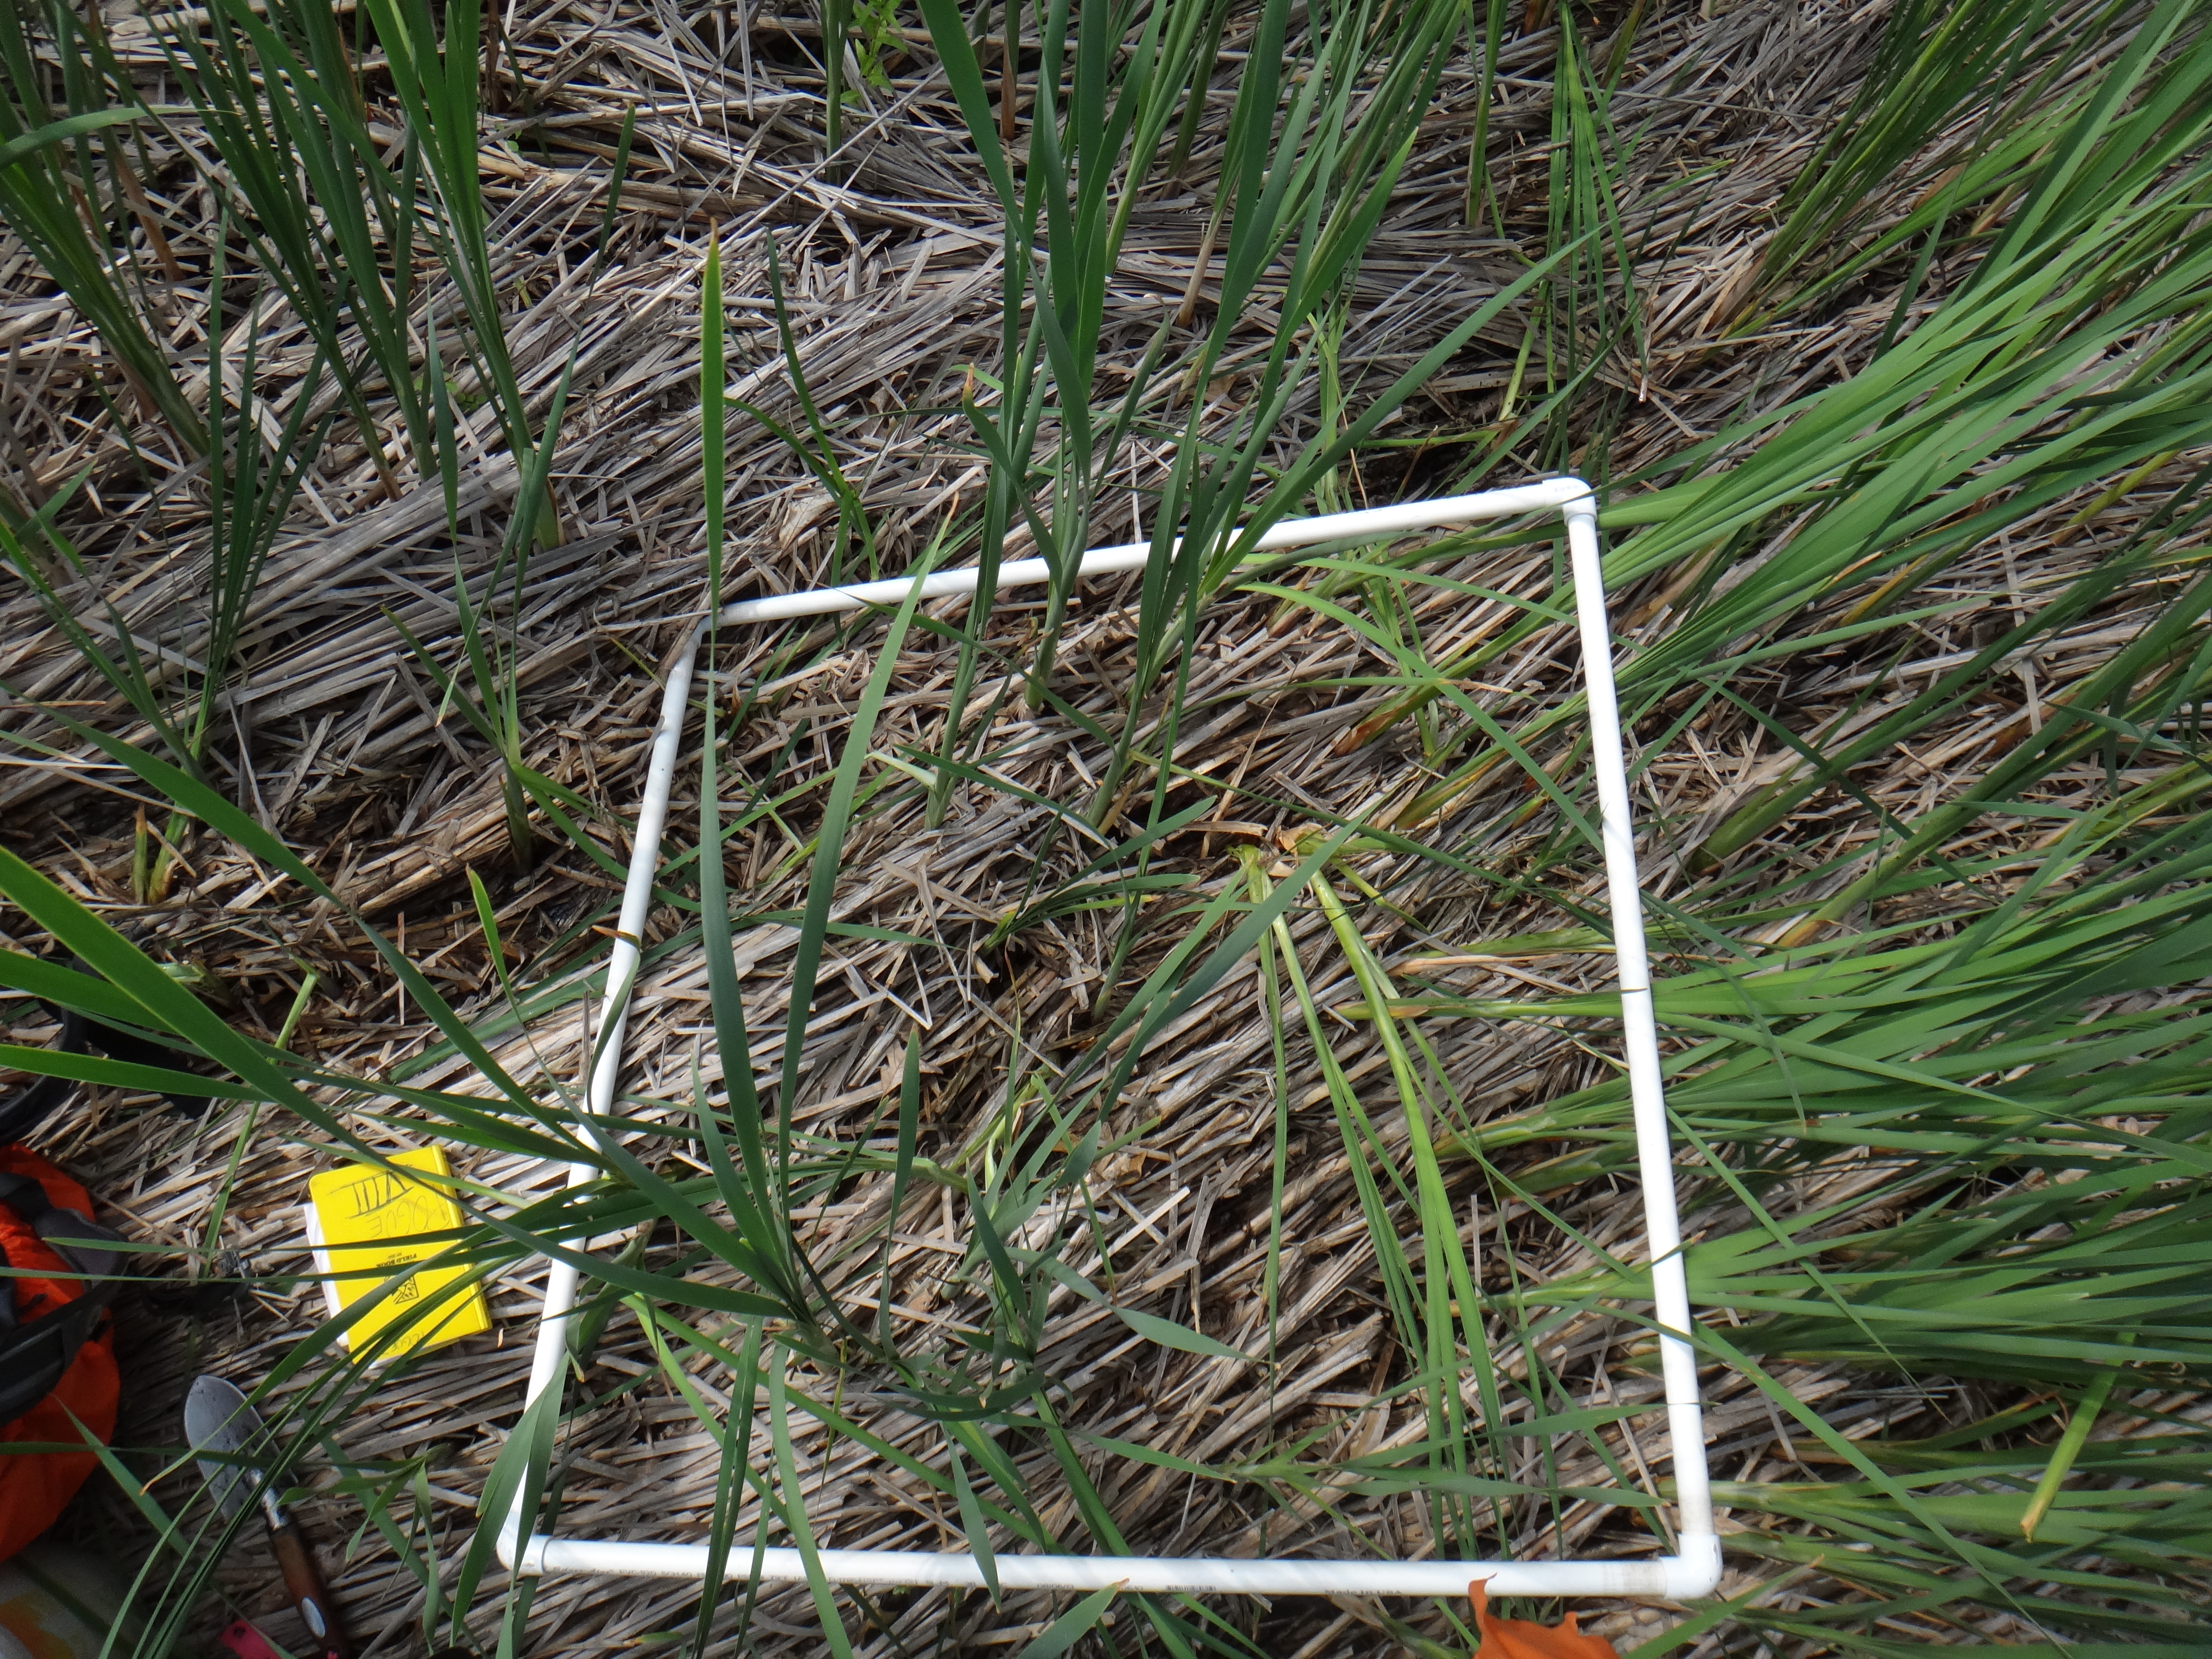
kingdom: Plantae
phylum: Tracheophyta
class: Liliopsida
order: Poales
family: Typhaceae
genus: Typha
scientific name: Typha angustifolia
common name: Lesser bulrush
